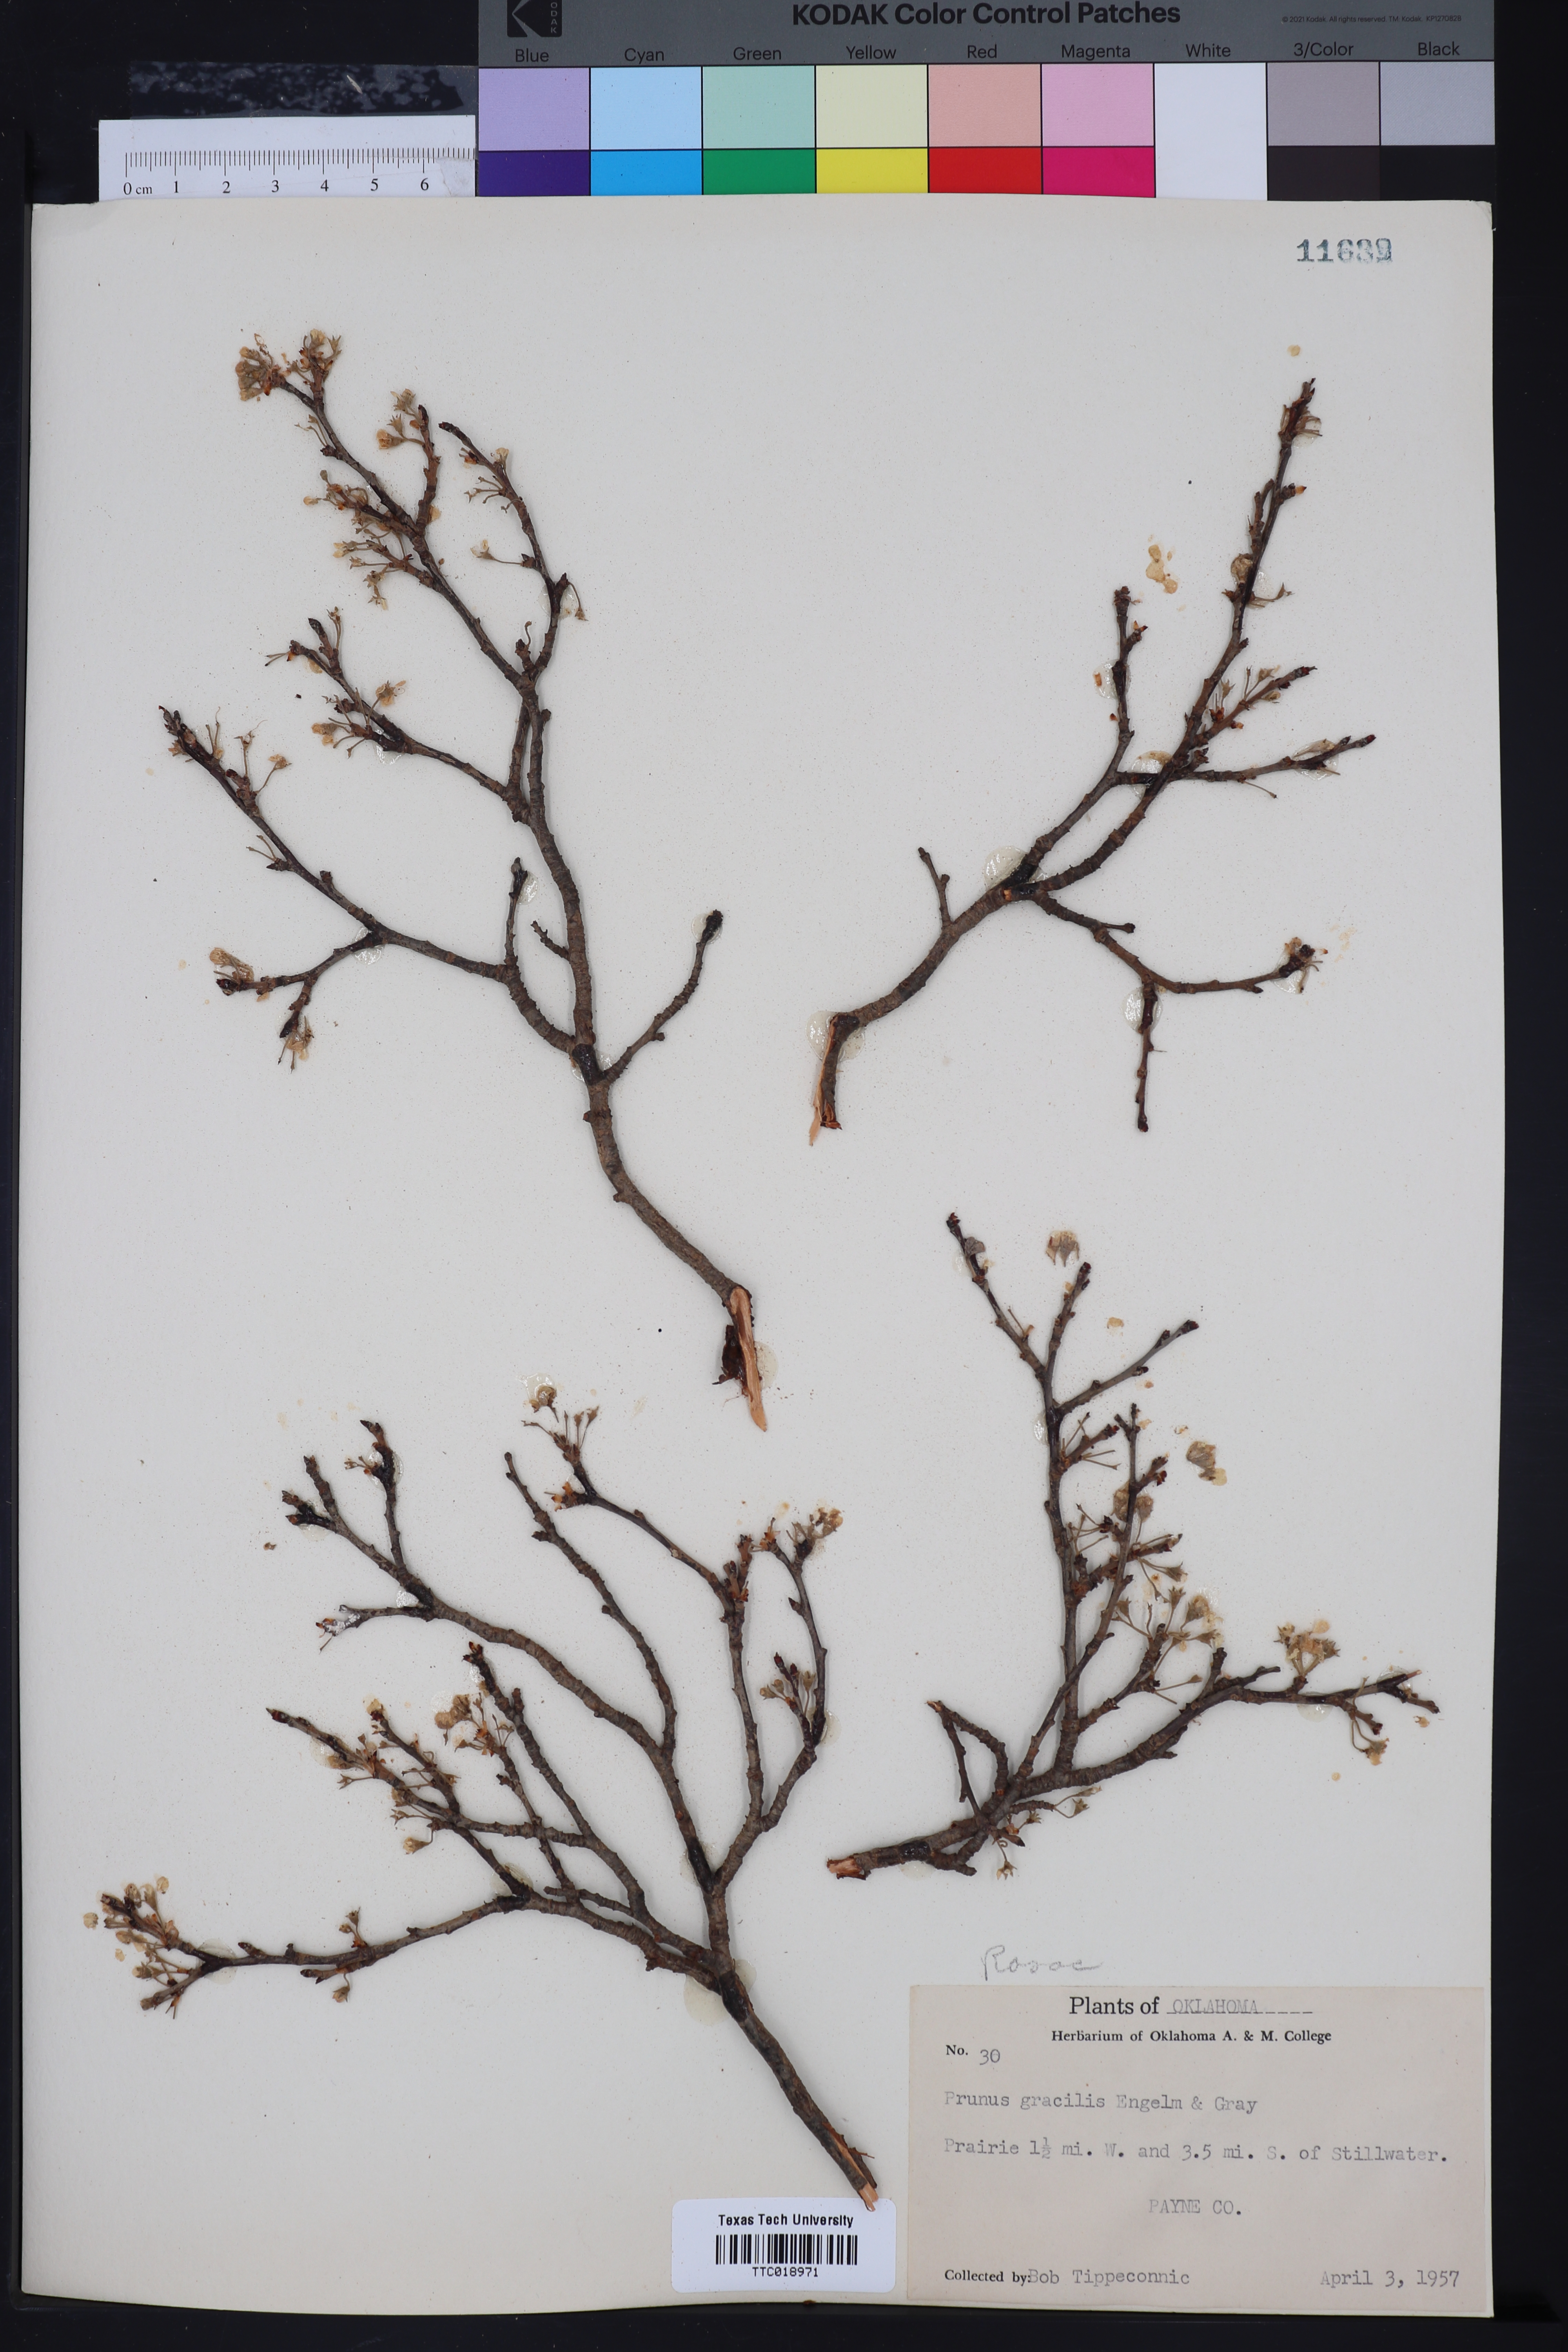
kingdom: Plantae
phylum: Tracheophyta
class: Magnoliopsida
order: Rosales
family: Rosaceae
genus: Prunus
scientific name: Prunus gracilis
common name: Oklahoma plum
